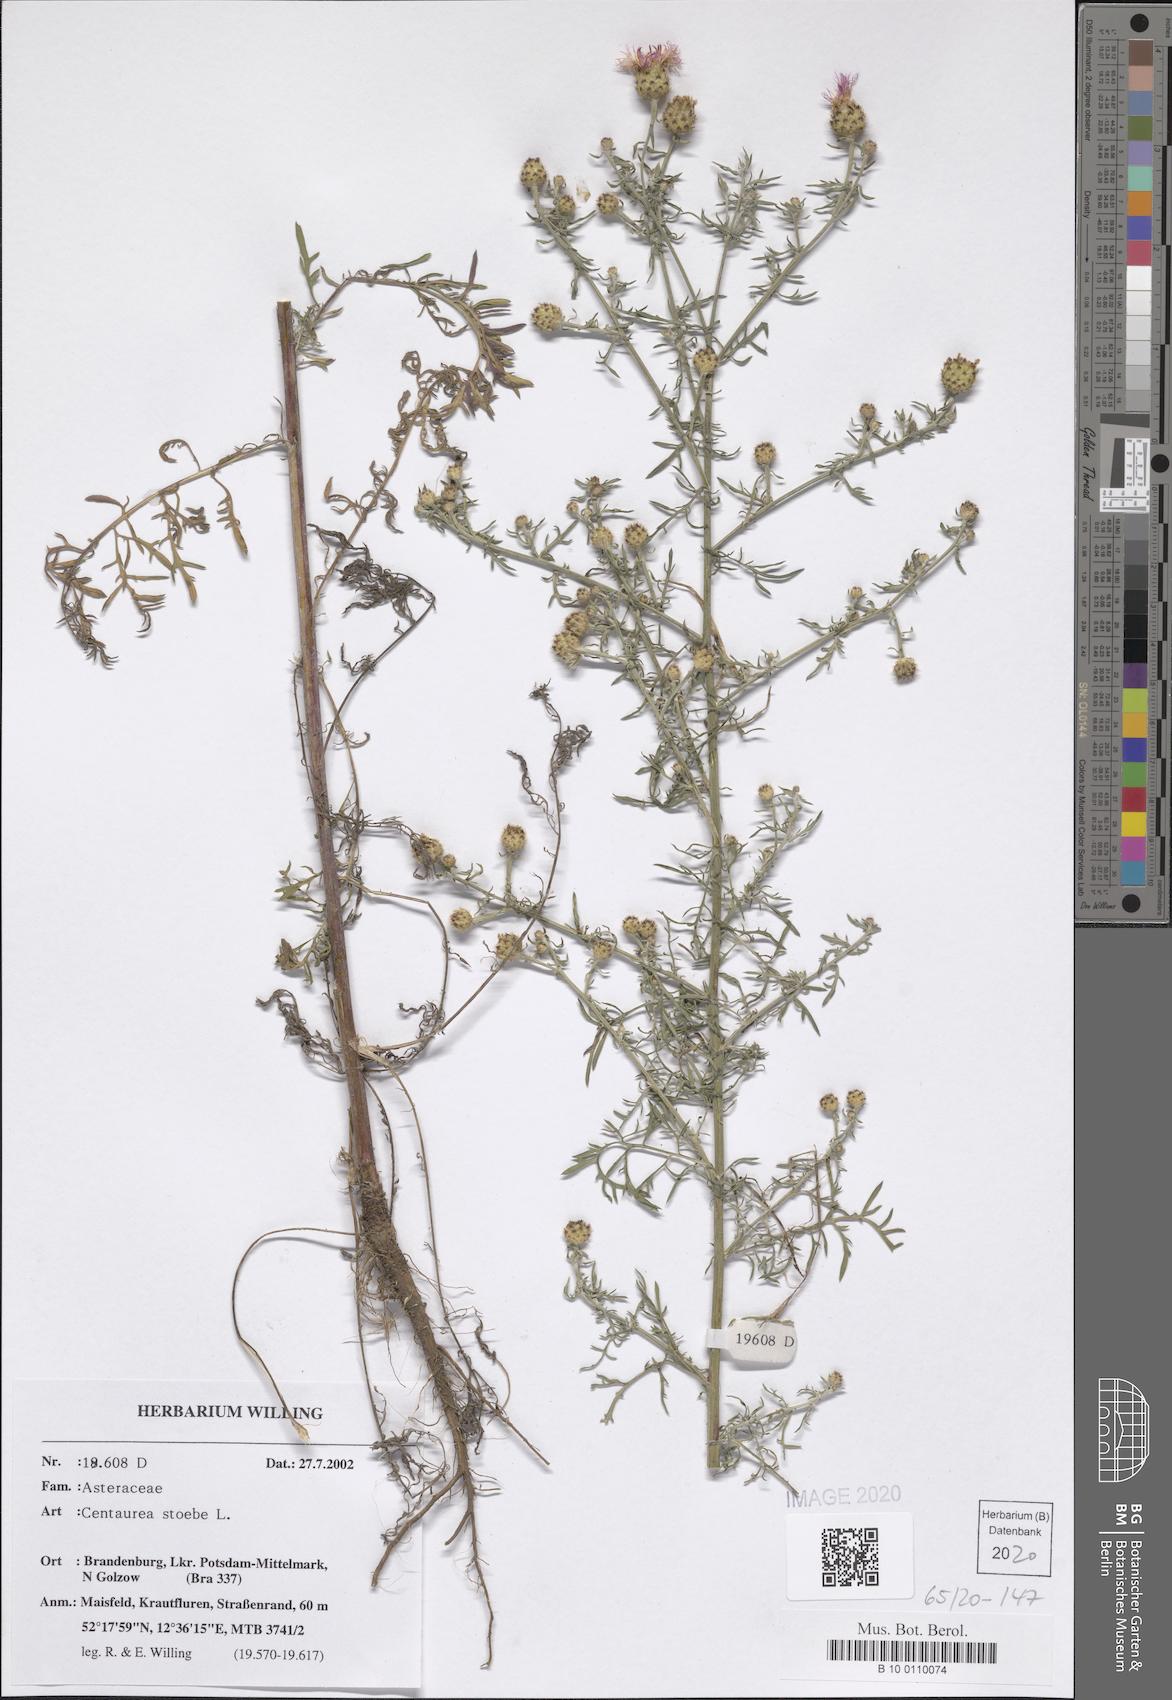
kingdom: Plantae
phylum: Tracheophyta
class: Magnoliopsida
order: Asterales
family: Asteraceae
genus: Centaurea
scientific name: Centaurea stoebe
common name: Spotted knapweed
